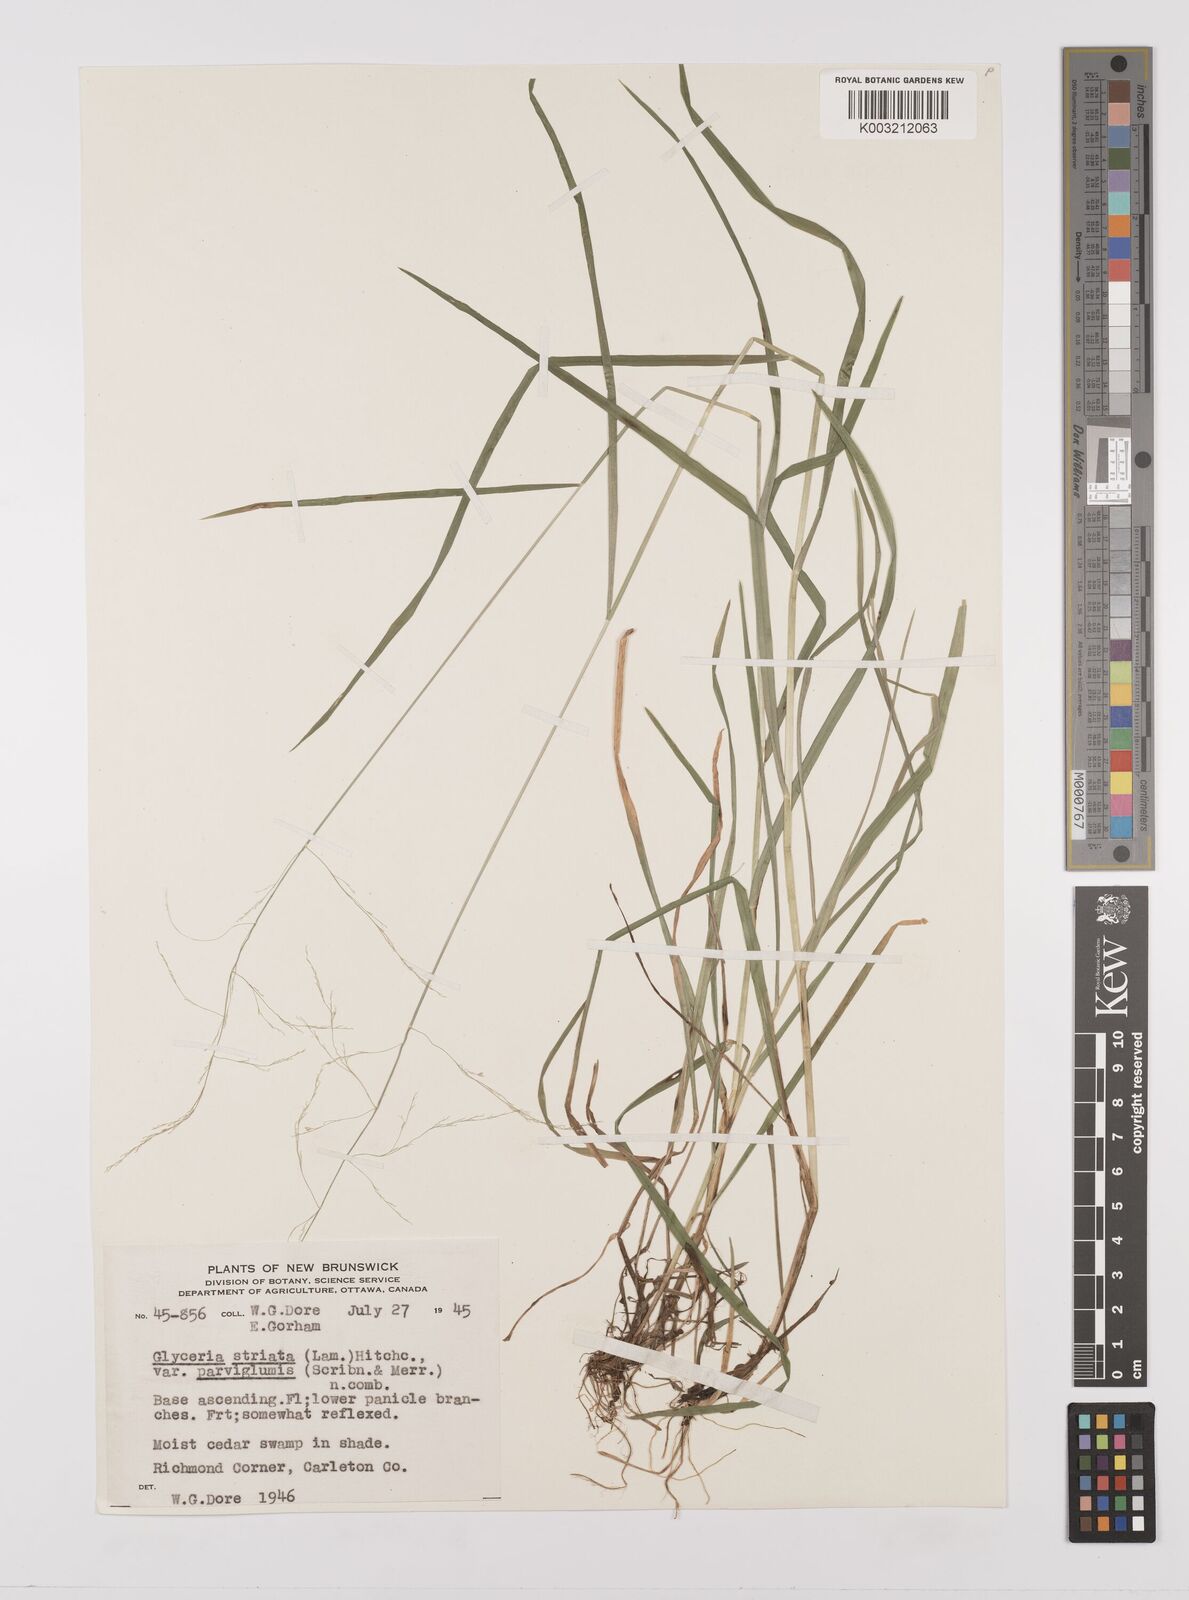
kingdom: Plantae
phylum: Tracheophyta
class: Liliopsida
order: Poales
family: Poaceae
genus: Glyceria
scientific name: Glyceria striata
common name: Fowl manna grass
